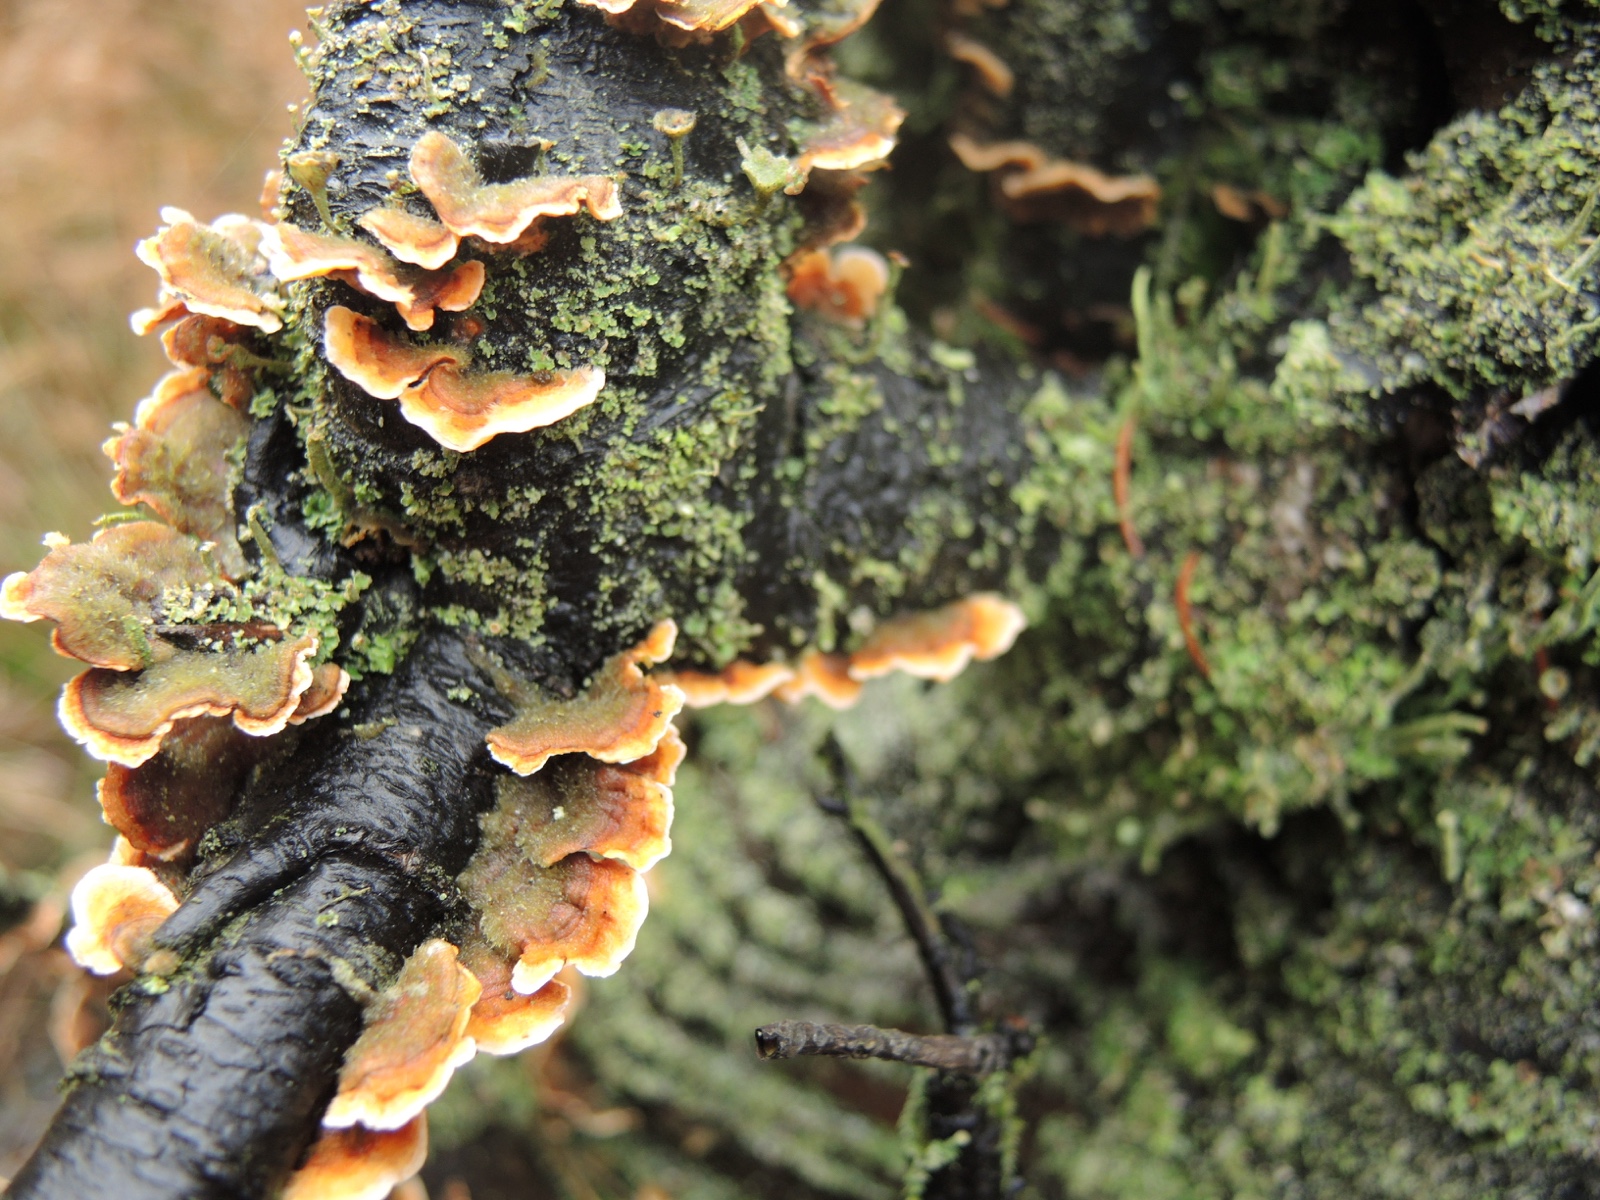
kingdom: Fungi
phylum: Basidiomycota
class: Agaricomycetes
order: Russulales
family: Stereaceae
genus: Stereum
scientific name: Stereum hirsutum
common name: håret lædersvamp
